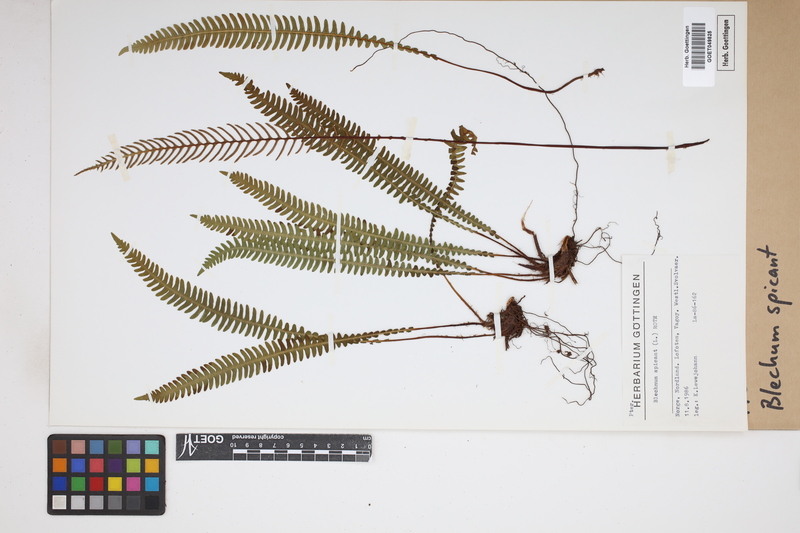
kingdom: Plantae
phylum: Tracheophyta
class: Polypodiopsida
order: Polypodiales
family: Blechnaceae
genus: Struthiopteris
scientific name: Struthiopteris spicant
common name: Deer fern
